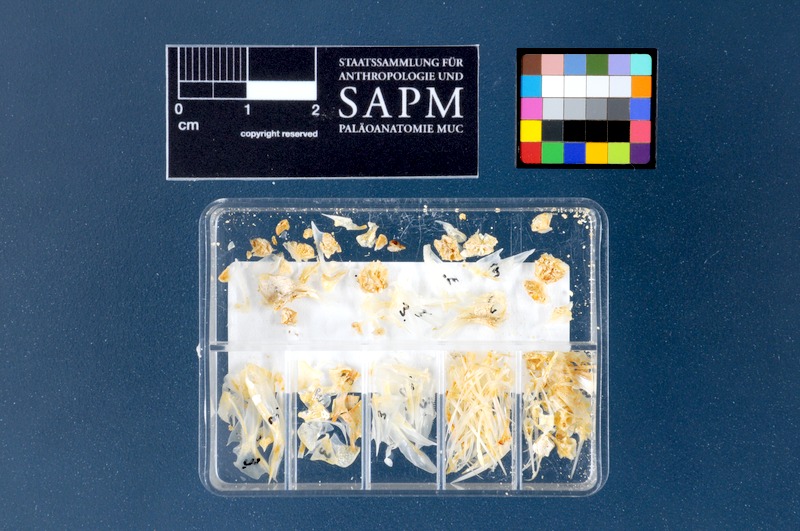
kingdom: Animalia
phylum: Chordata
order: Perciformes
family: Serranidae
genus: Serranus
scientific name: Serranus hepatus
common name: Brown comber
